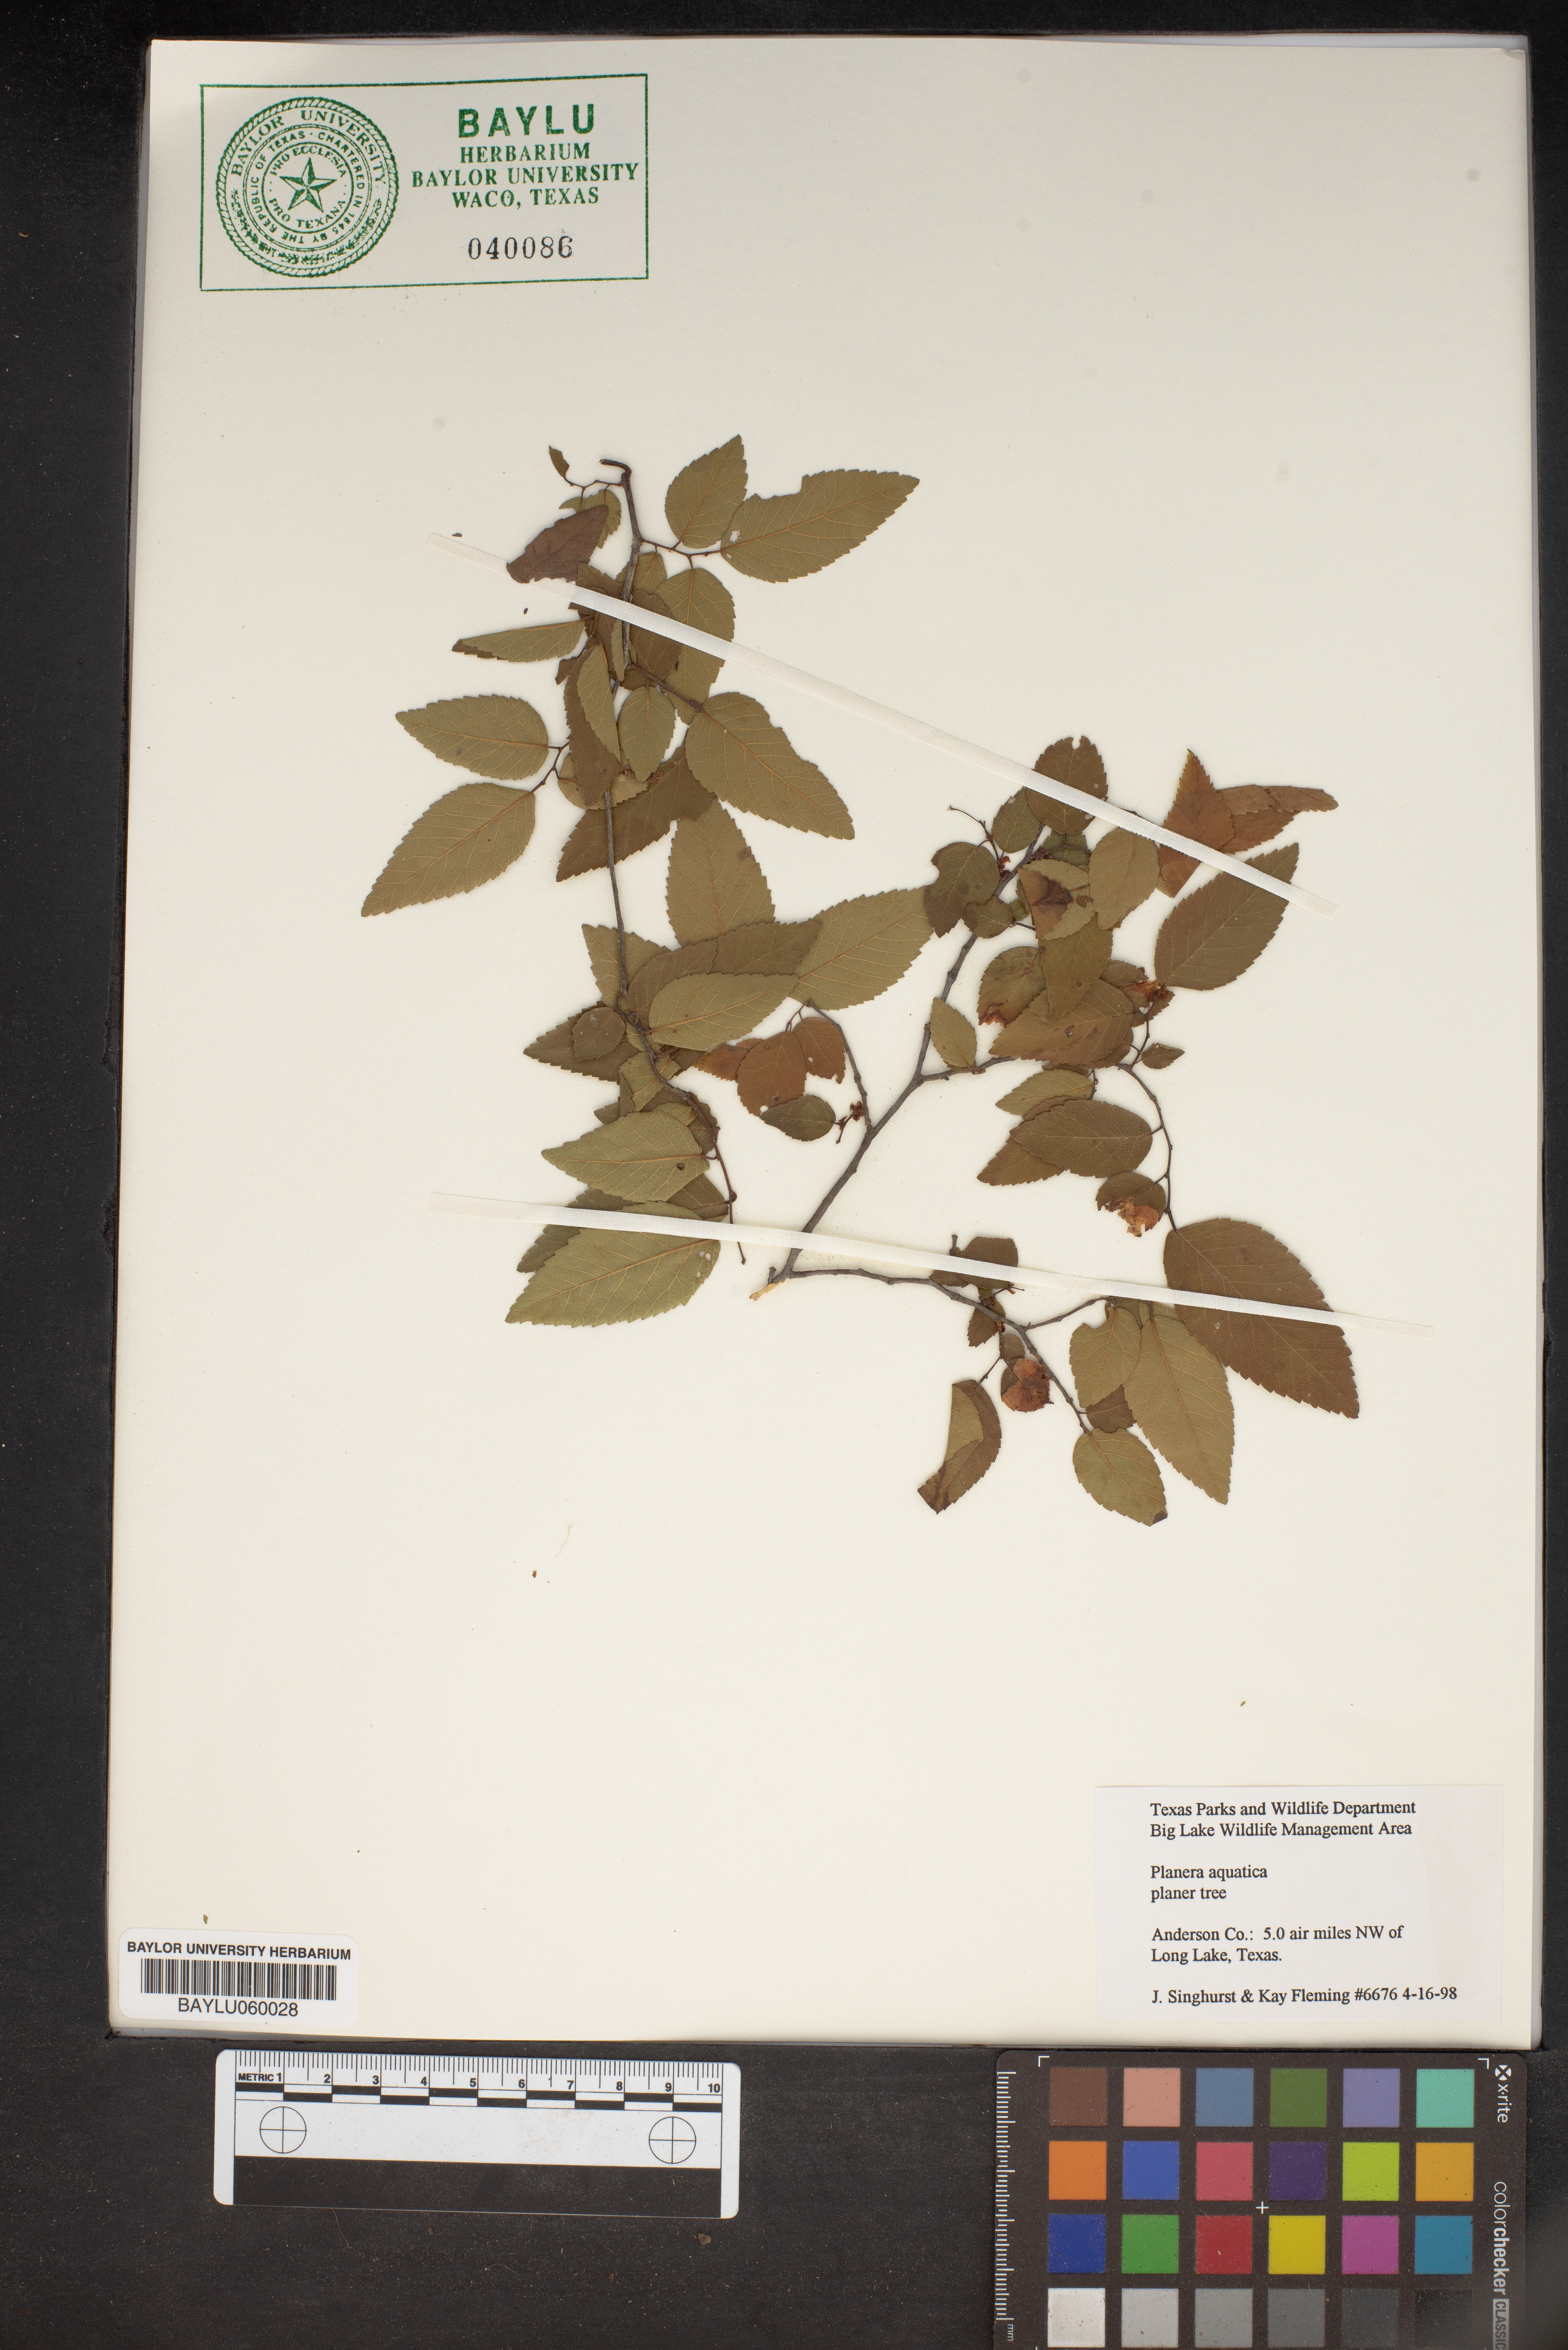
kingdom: Plantae
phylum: Tracheophyta
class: Magnoliopsida
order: Rosales
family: Ulmaceae
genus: Planera
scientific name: Planera aquatica
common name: Water-elm
